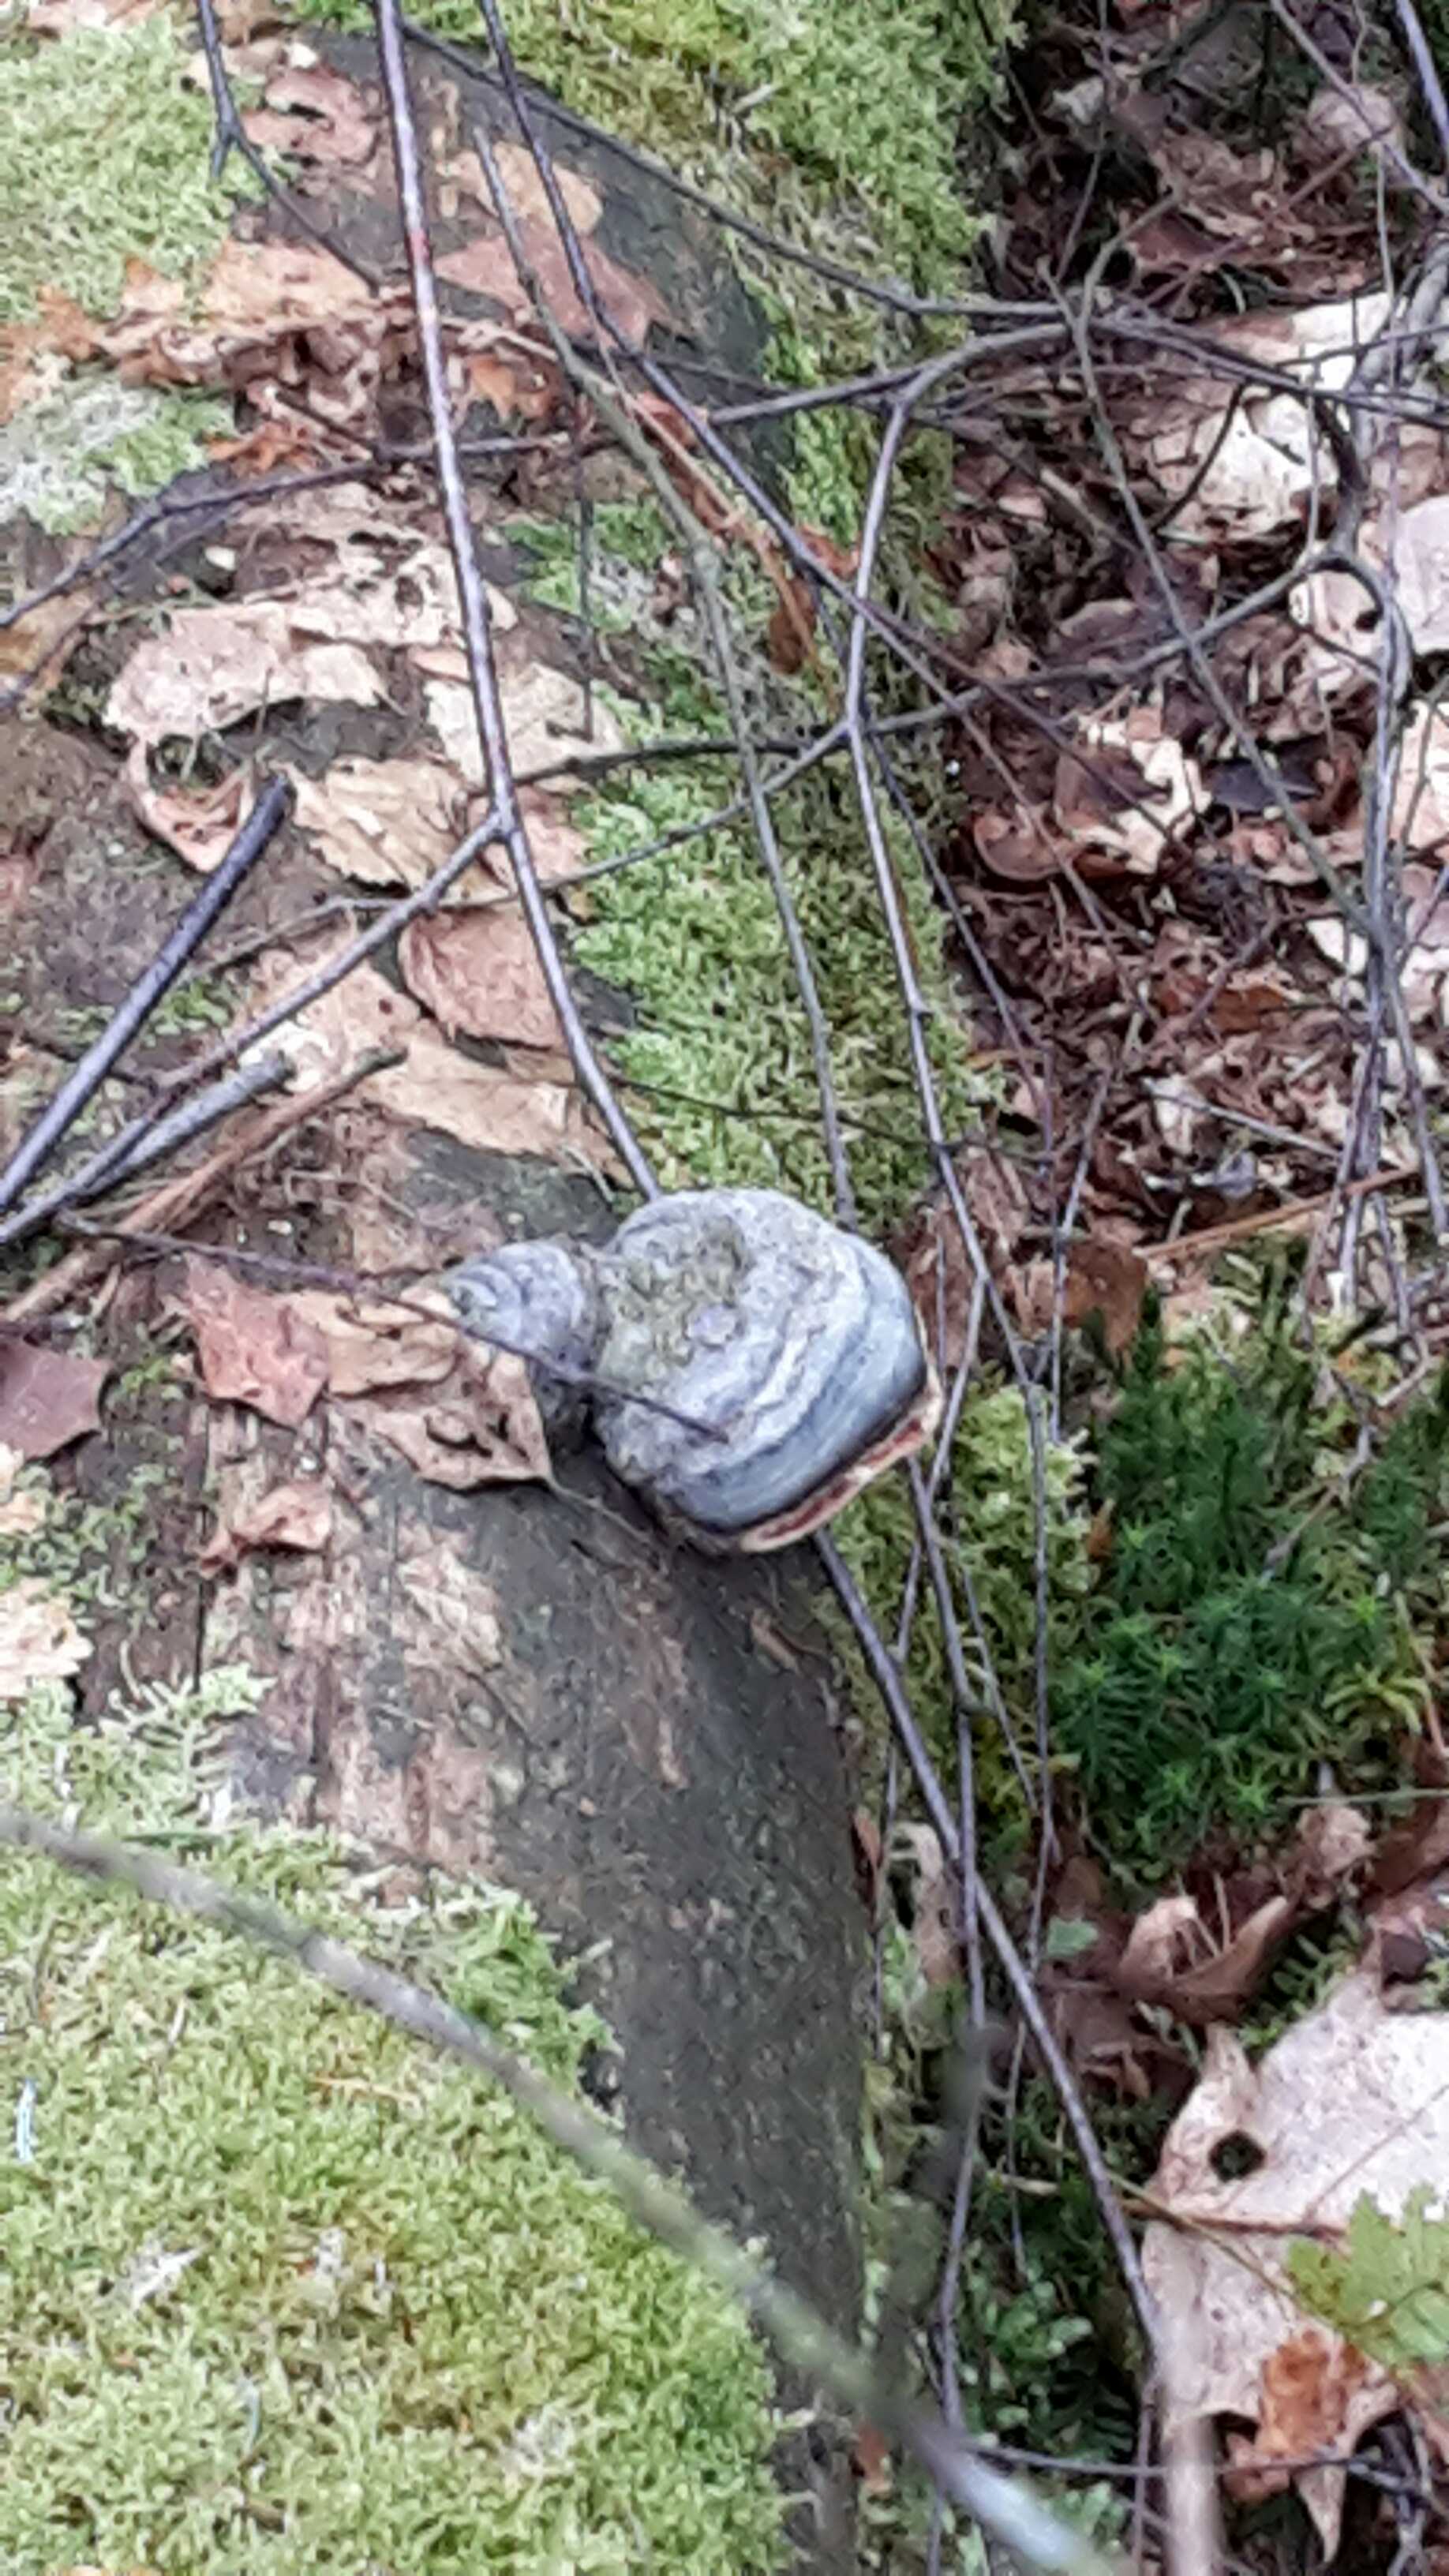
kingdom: Fungi
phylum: Basidiomycota
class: Agaricomycetes
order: Polyporales
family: Fomitopsidaceae
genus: Fomitopsis
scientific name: Fomitopsis pinicola
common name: randbæltet hovporesvamp
